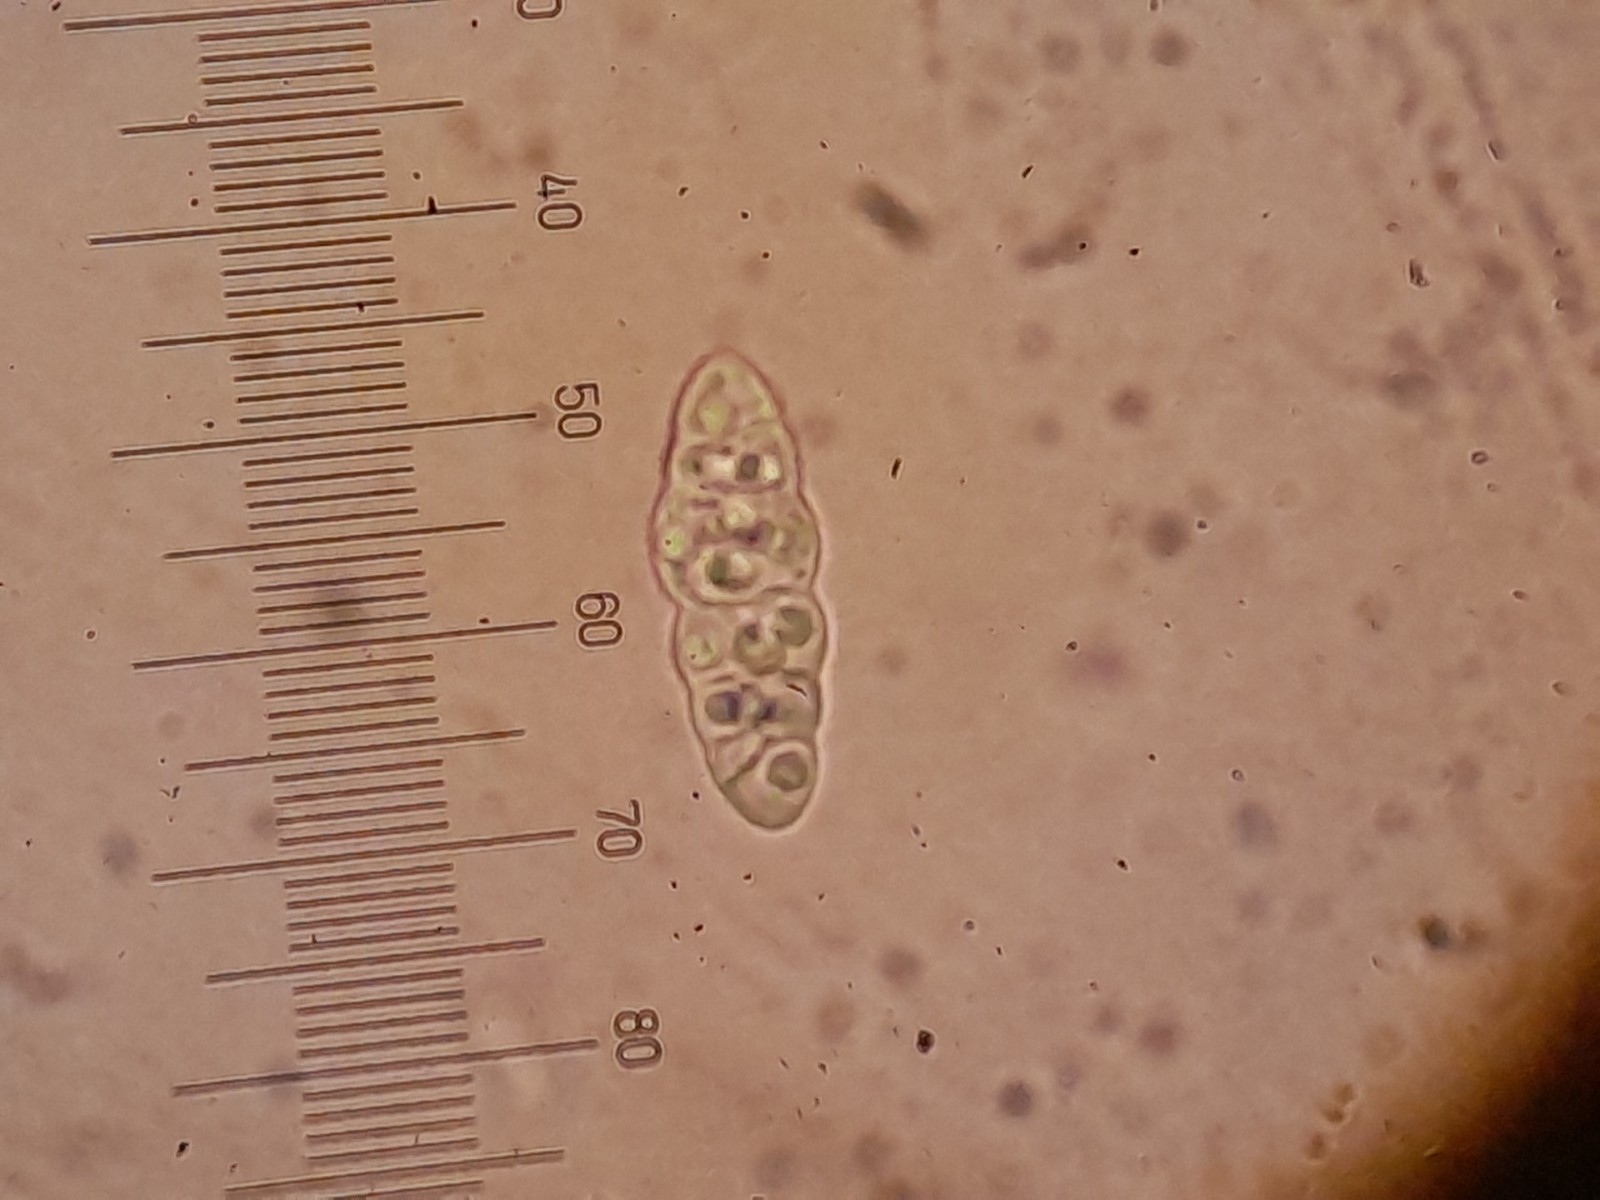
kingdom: Fungi
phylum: Ascomycota
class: Dothideomycetes
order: Hysteriales
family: Hysteriaceae
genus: Hysterobrevium
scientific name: Hysterobrevium smilacis
